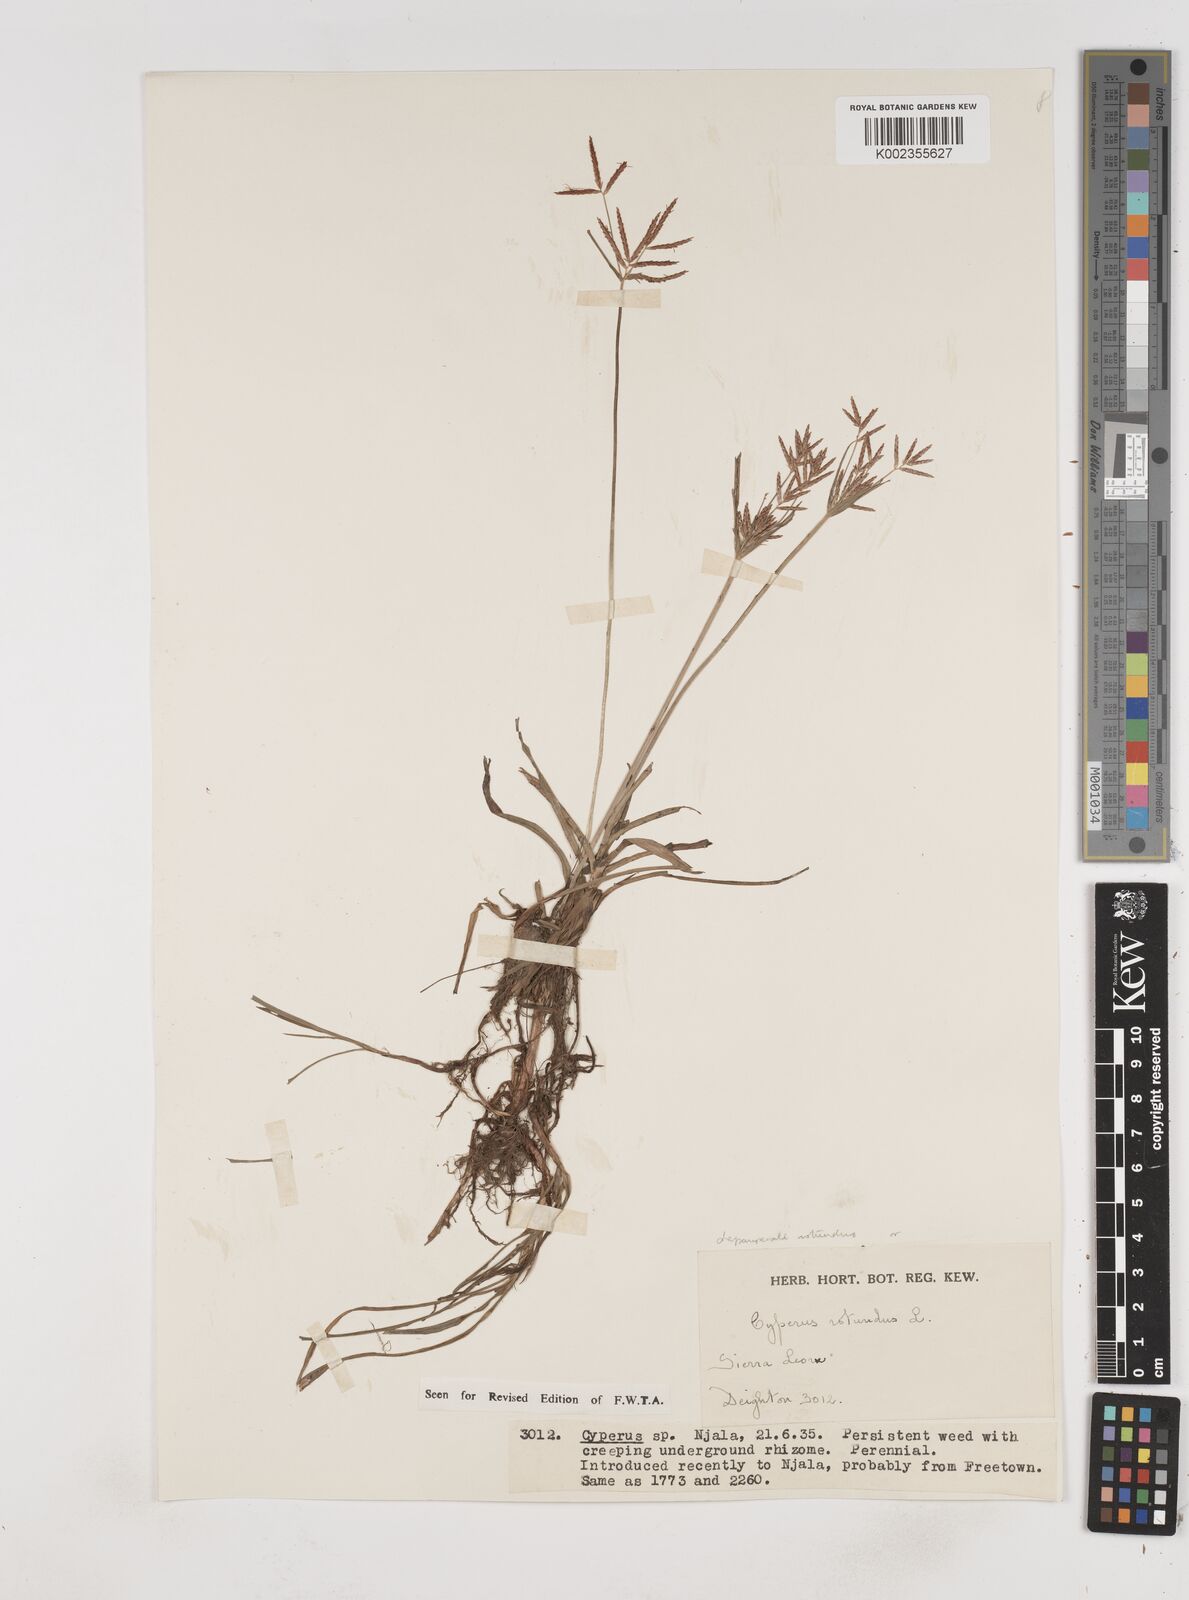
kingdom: Plantae
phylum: Tracheophyta
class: Liliopsida
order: Poales
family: Cyperaceae
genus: Cyperus
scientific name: Cyperus rotundus
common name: Nutgrass
